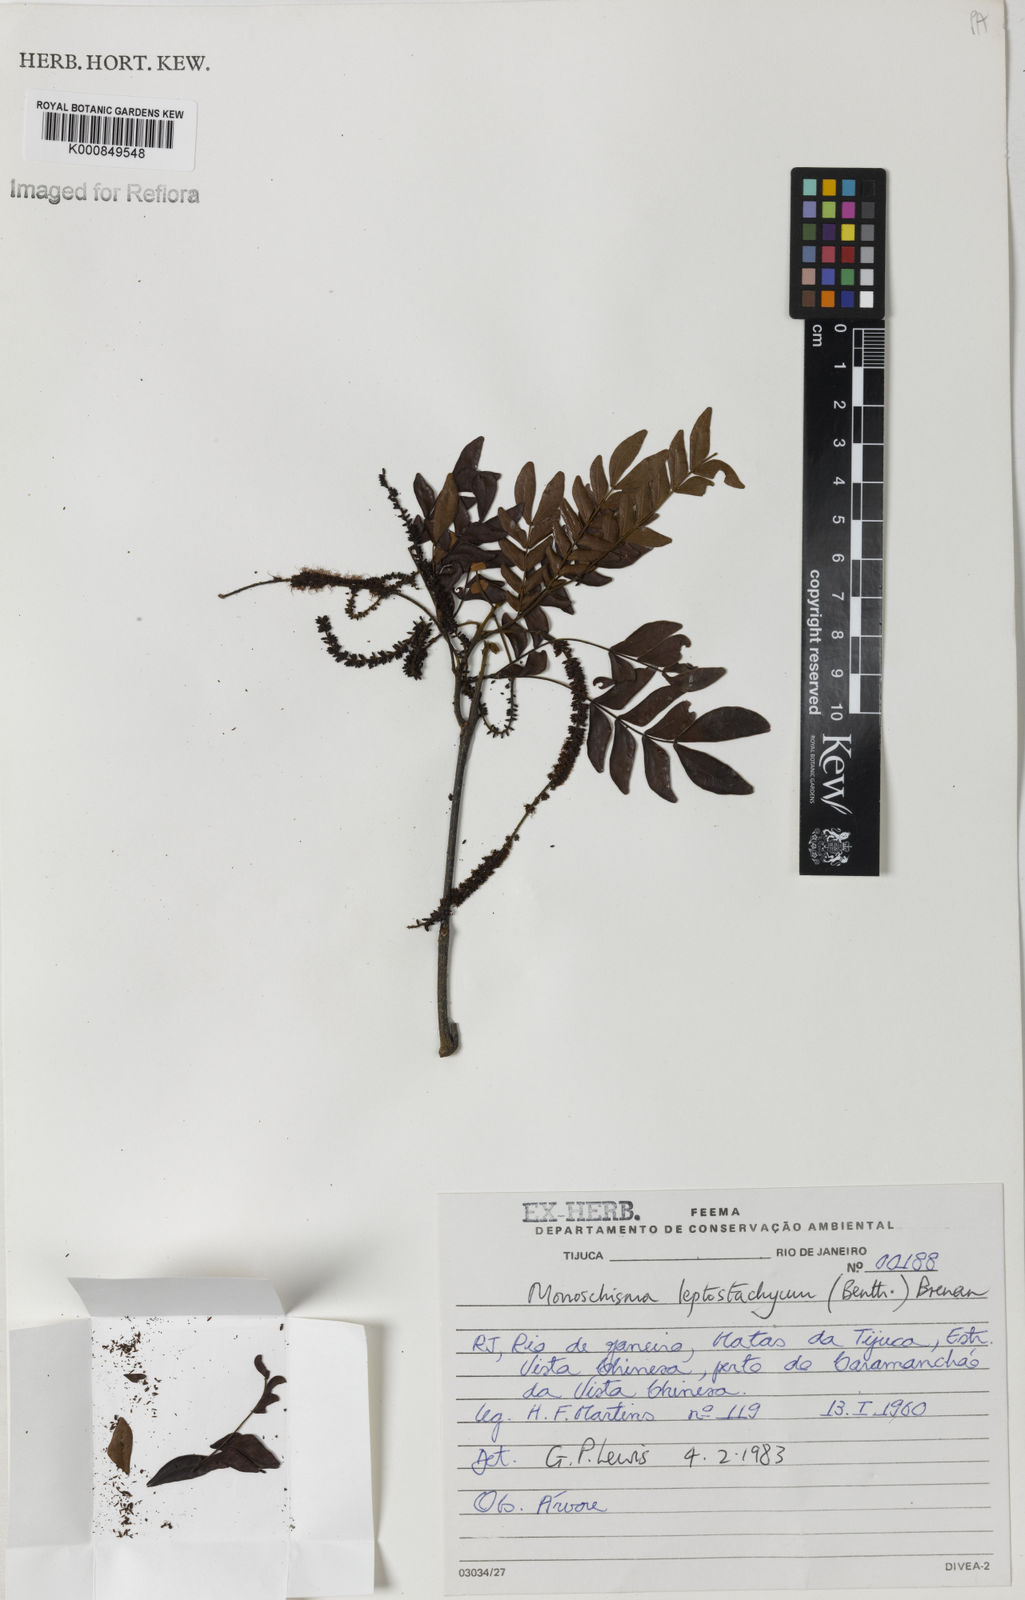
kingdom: Plantae
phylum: Tracheophyta
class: Magnoliopsida
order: Fabales
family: Fabaceae
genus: Pseudopiptadenia
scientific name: Pseudopiptadenia leptostachya
